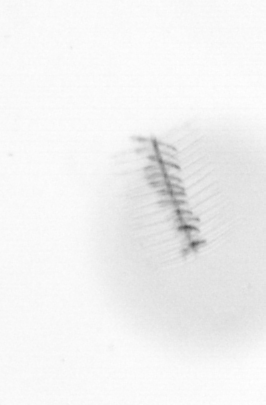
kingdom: Chromista
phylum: Ochrophyta
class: Bacillariophyceae
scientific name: Bacillariophyceae
